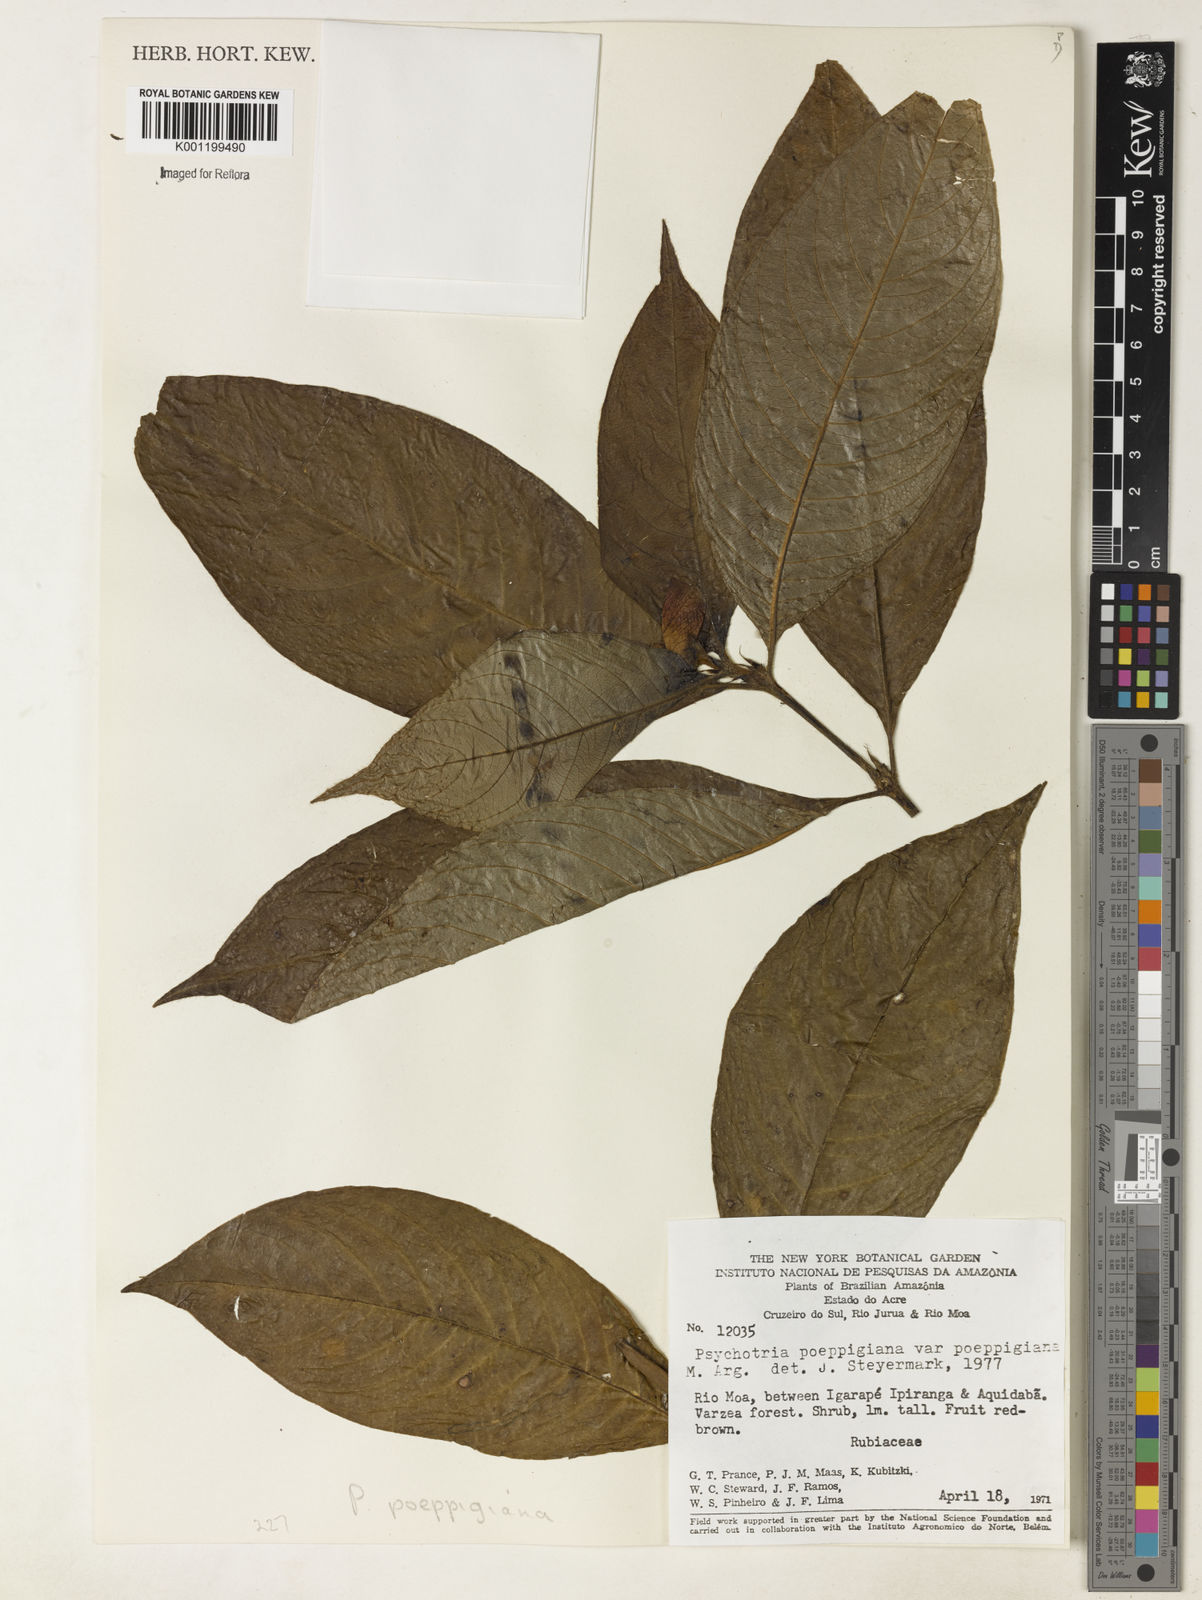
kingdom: Plantae
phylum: Tracheophyta
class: Magnoliopsida
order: Gentianales
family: Rubiaceae
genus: Psychotria
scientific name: Psychotria
